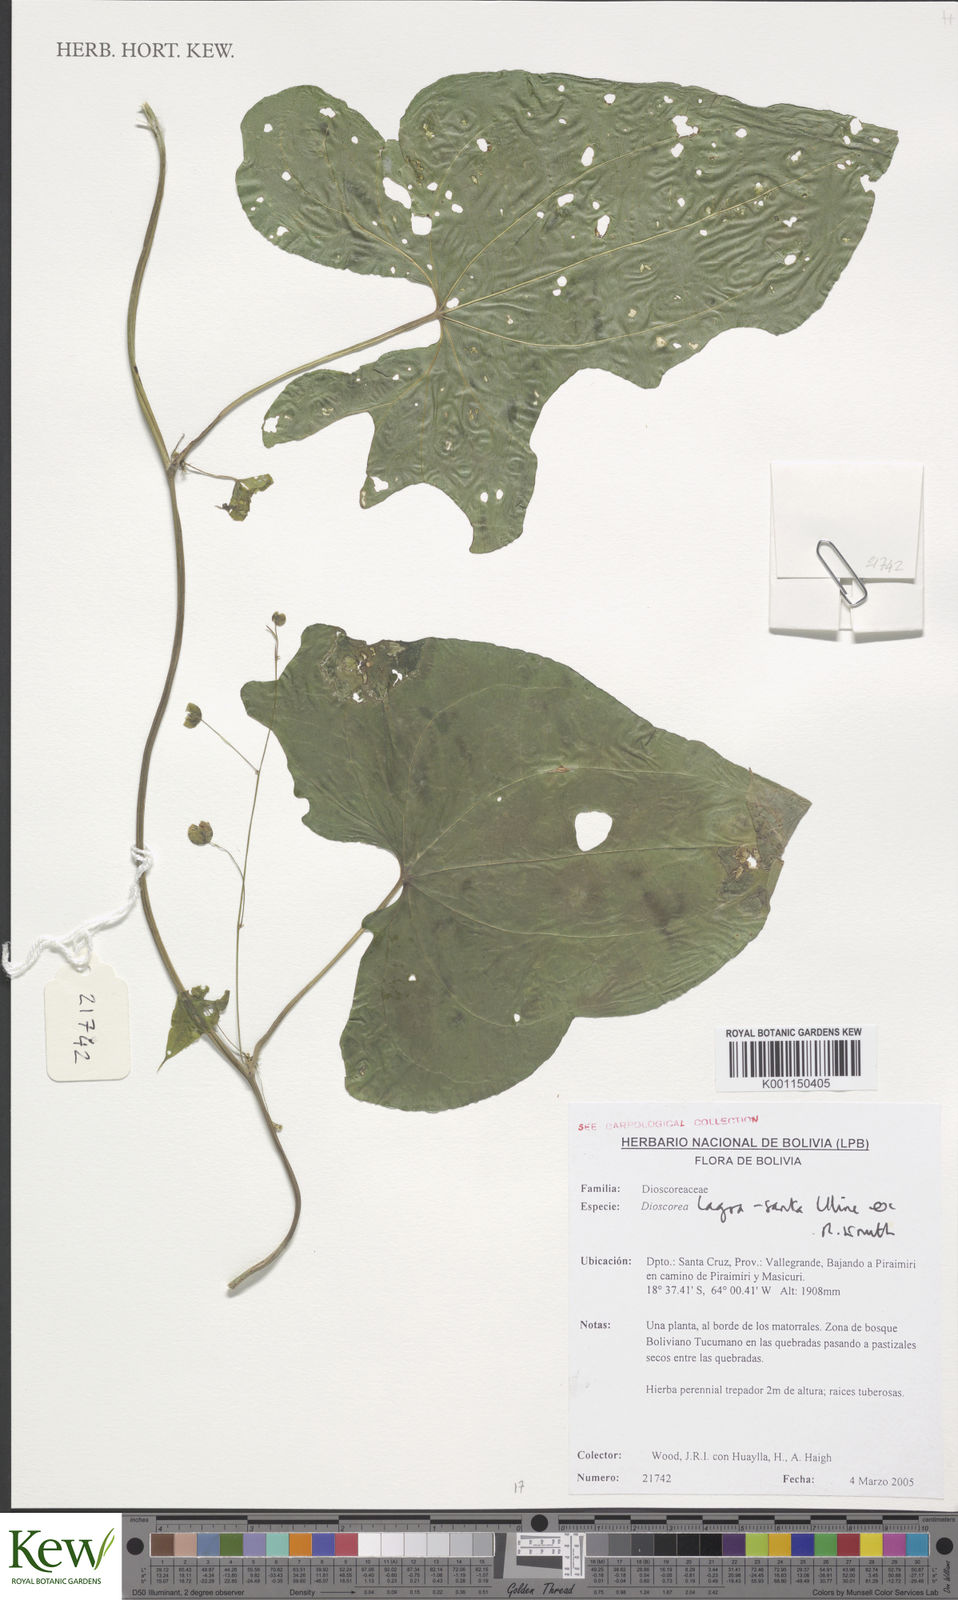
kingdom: Plantae
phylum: Tracheophyta
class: Liliopsida
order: Dioscoreales
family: Dioscoreaceae
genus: Dioscorea
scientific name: Dioscorea spectabilis
